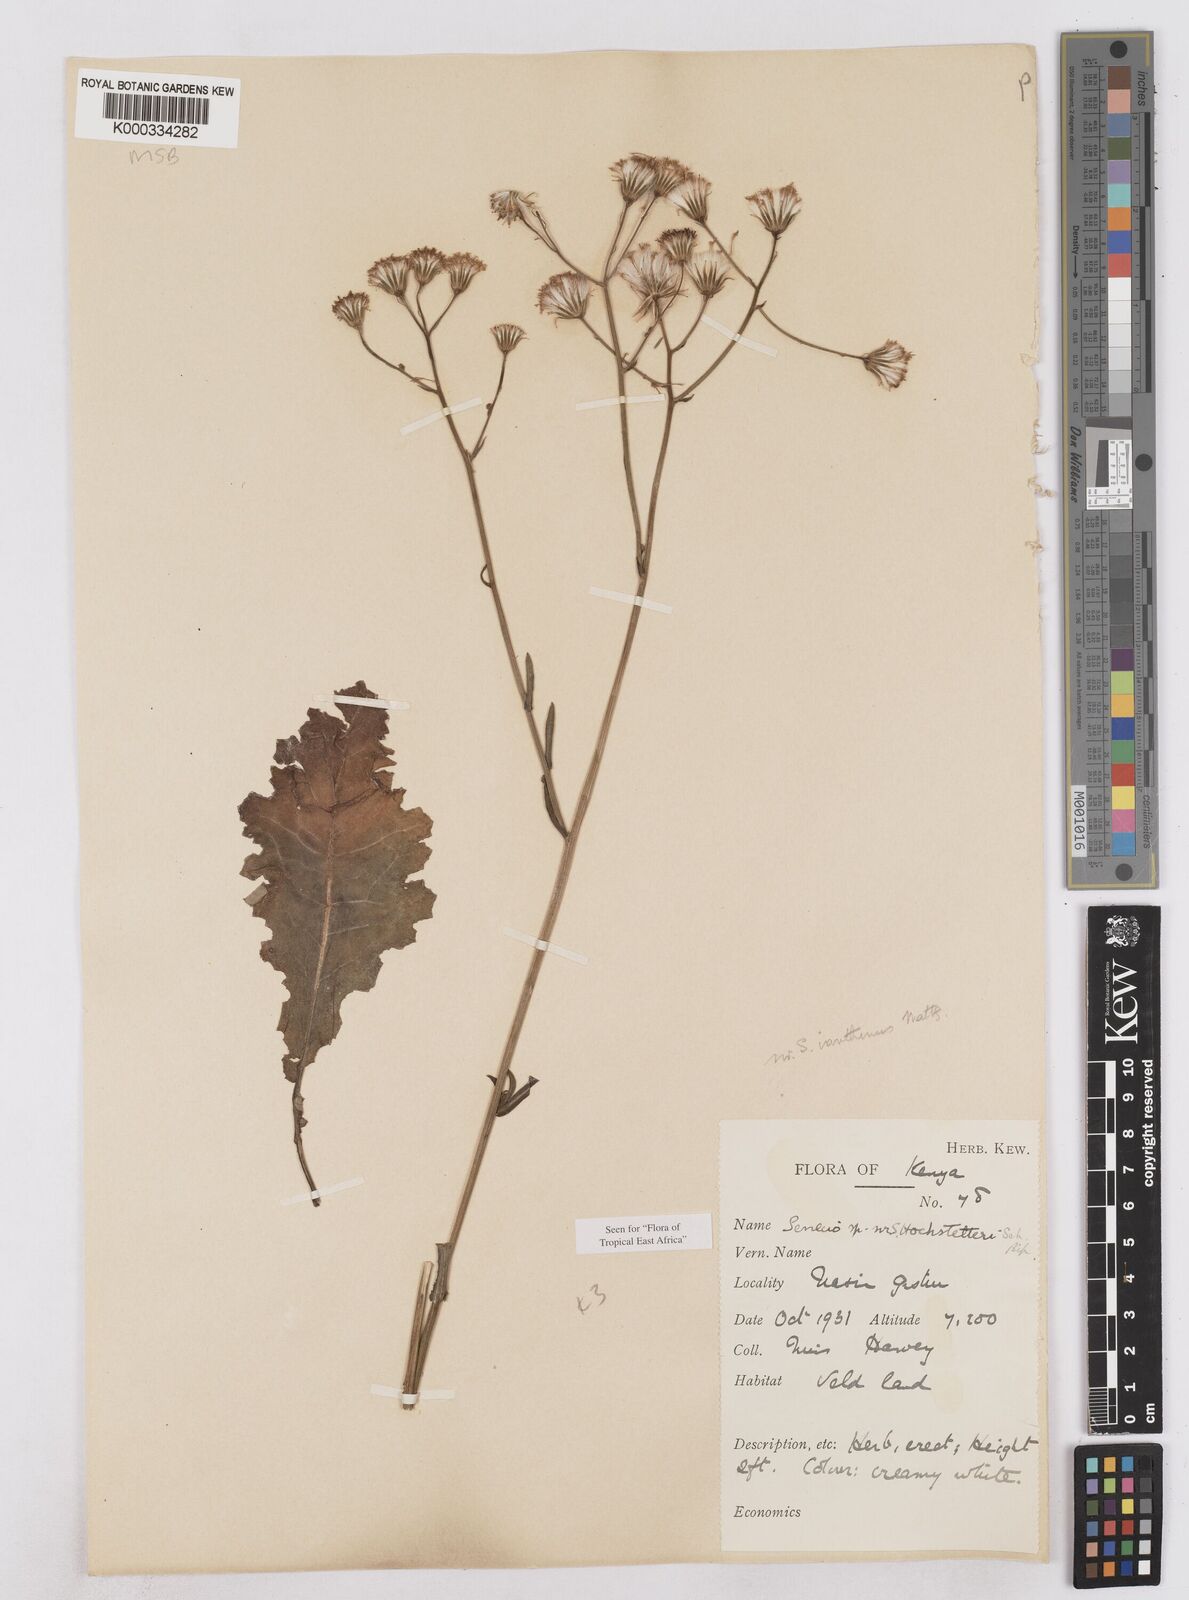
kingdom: Plantae
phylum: Tracheophyta
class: Magnoliopsida
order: Asterales
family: Asteraceae
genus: Senecio
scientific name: Senecio hochstetteri
